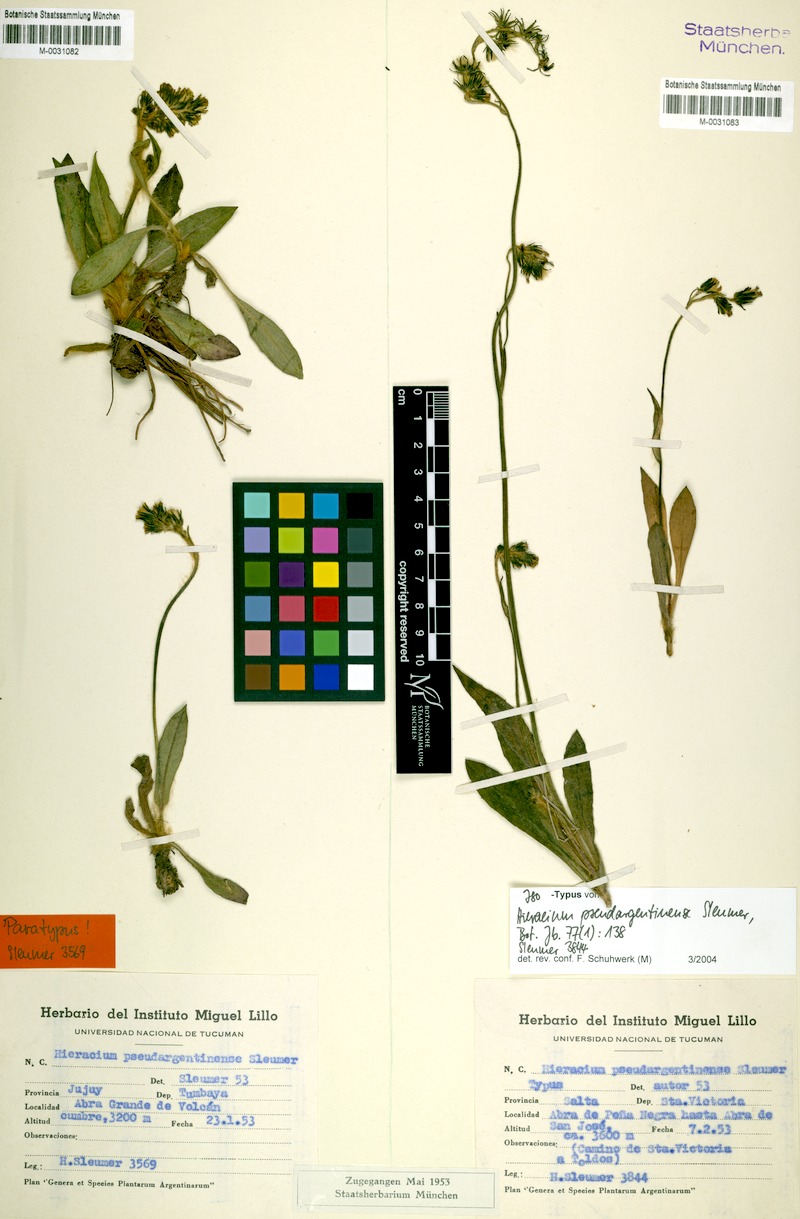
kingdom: Plantae
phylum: Tracheophyta
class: Magnoliopsida
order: Asterales
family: Asteraceae
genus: Hieracium
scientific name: Hieracium mandonii
